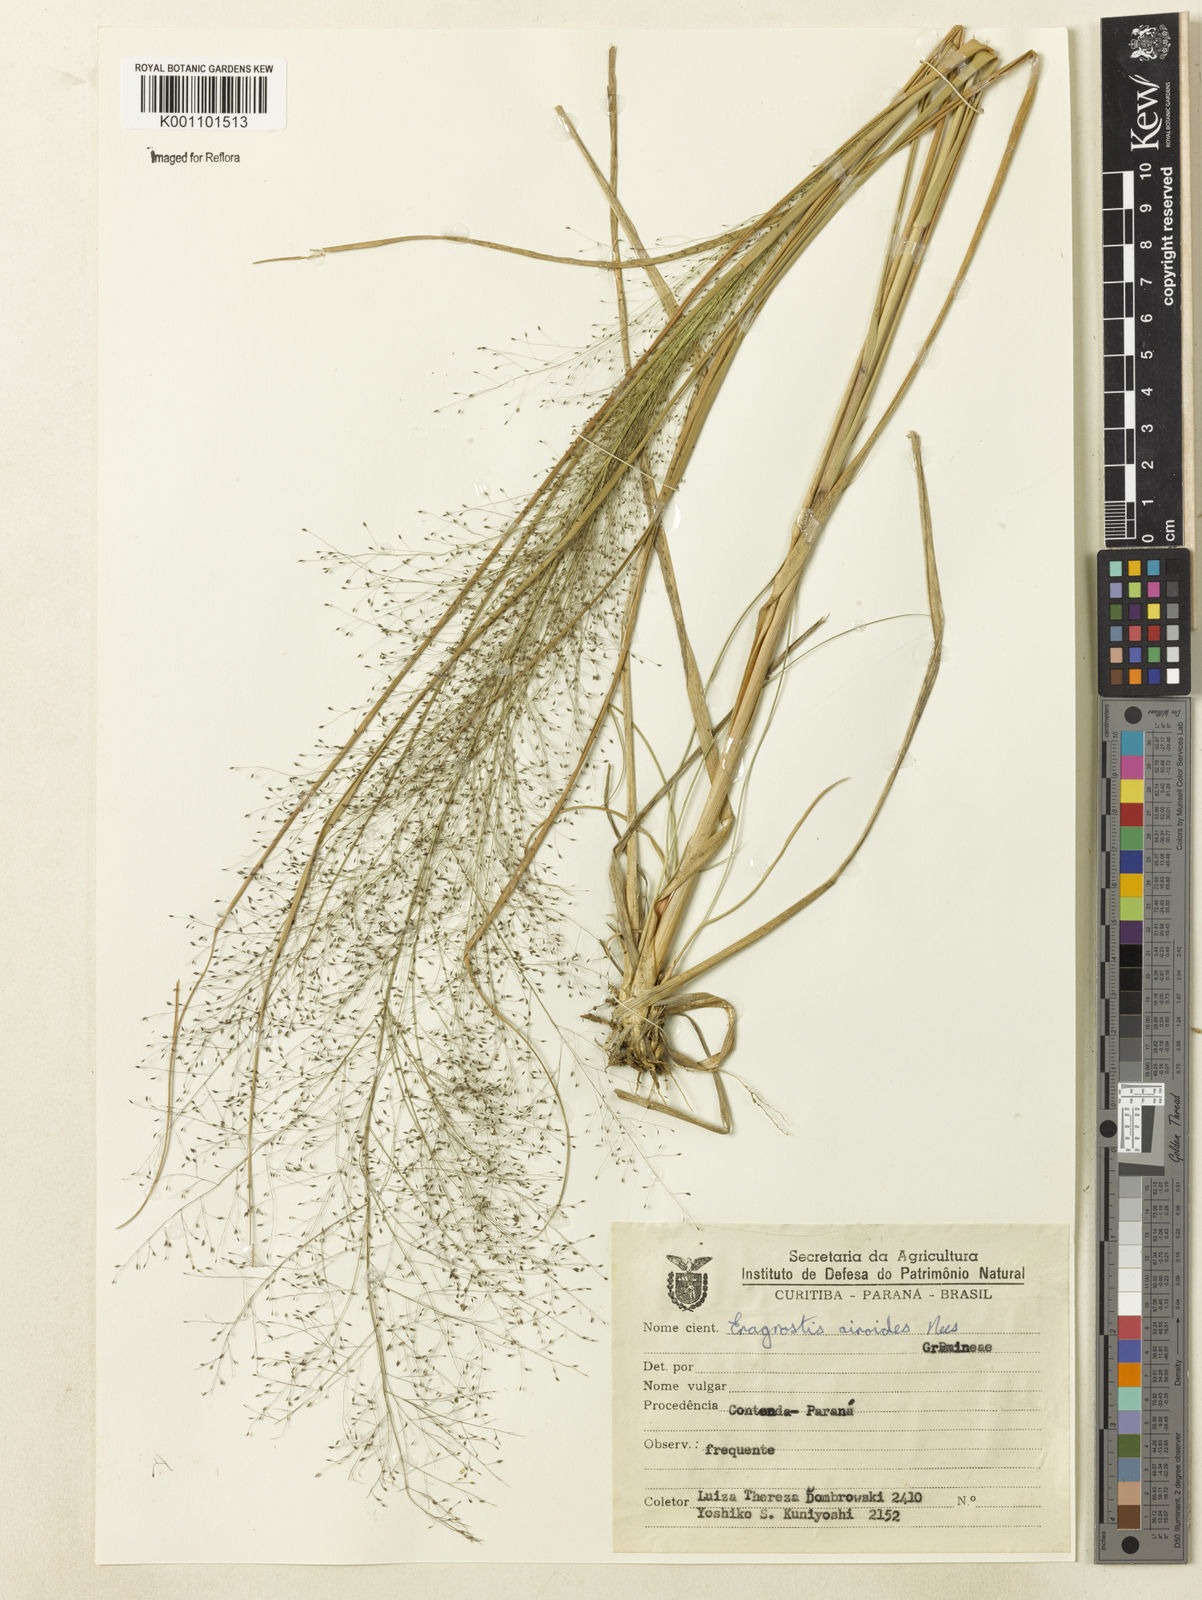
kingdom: Plantae
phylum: Tracheophyta
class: Liliopsida
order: Poales
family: Poaceae
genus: Eragrostis
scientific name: Eragrostis airoides
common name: Darnel lovegrass
